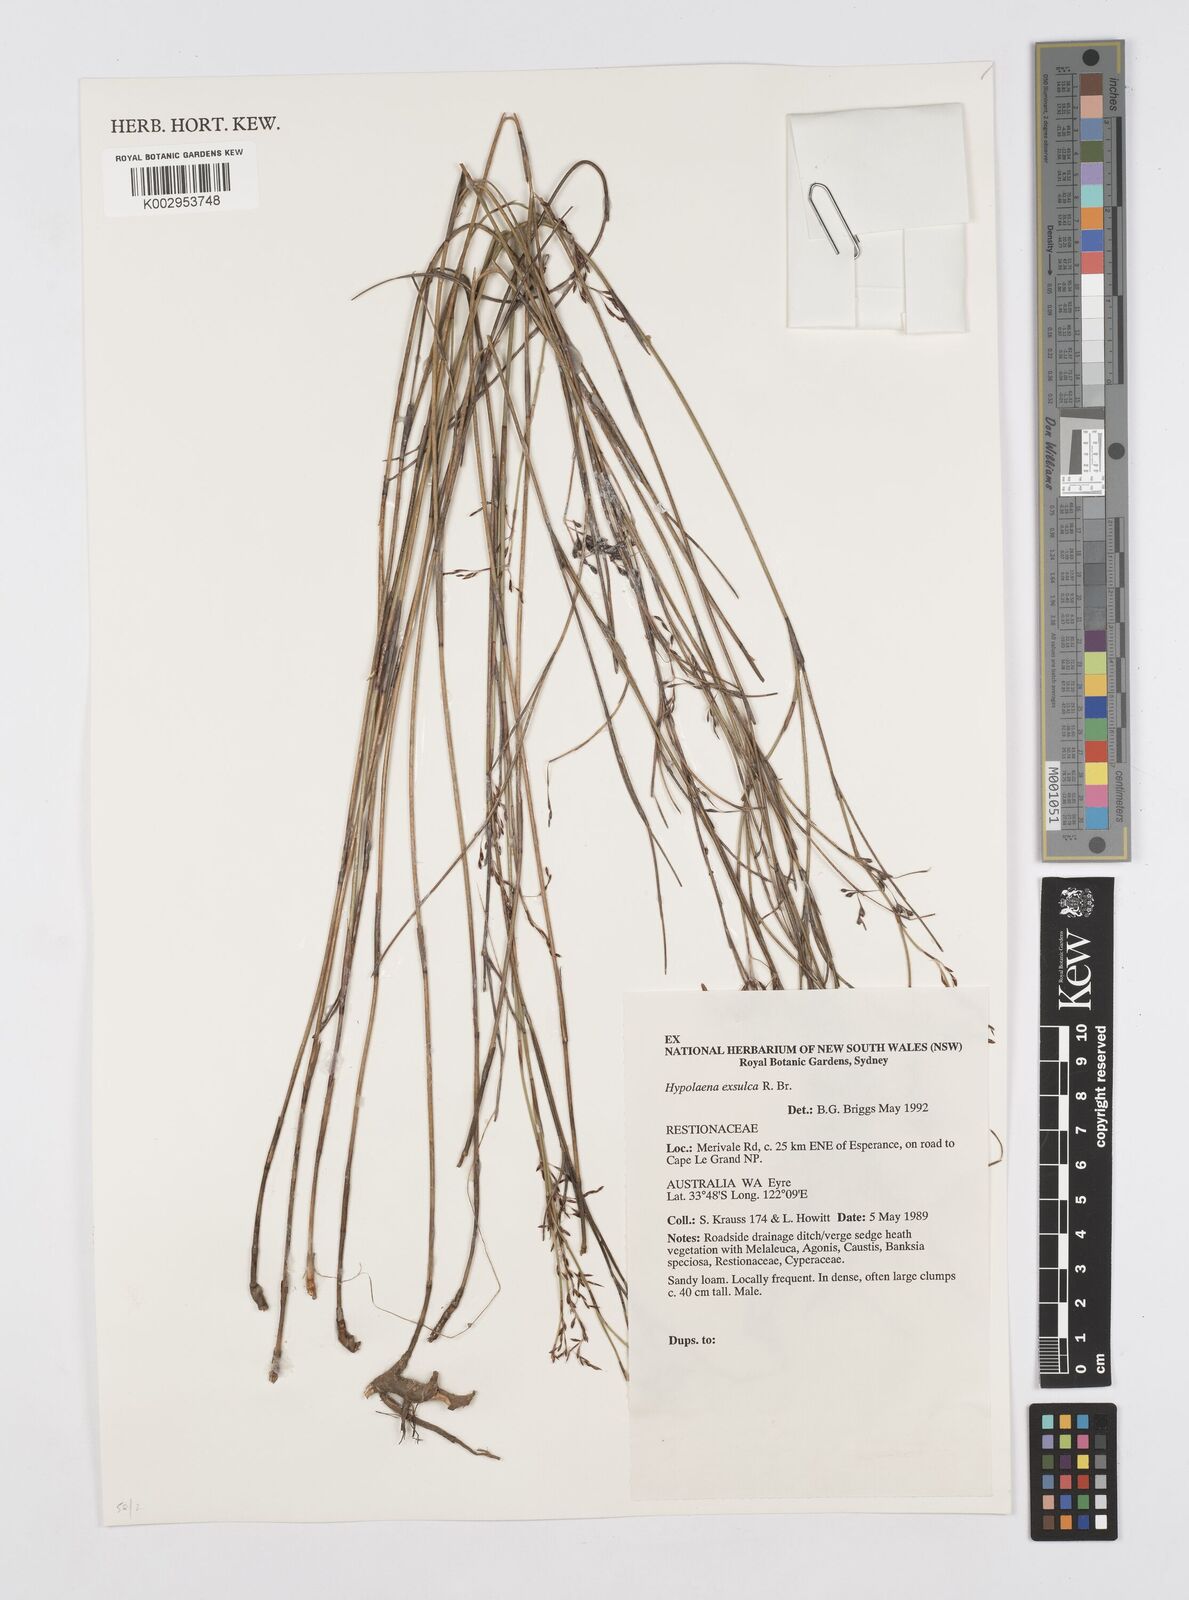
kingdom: Plantae
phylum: Tracheophyta
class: Liliopsida
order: Poales
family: Restionaceae
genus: Hypolaena
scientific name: Hypolaena exsulca
